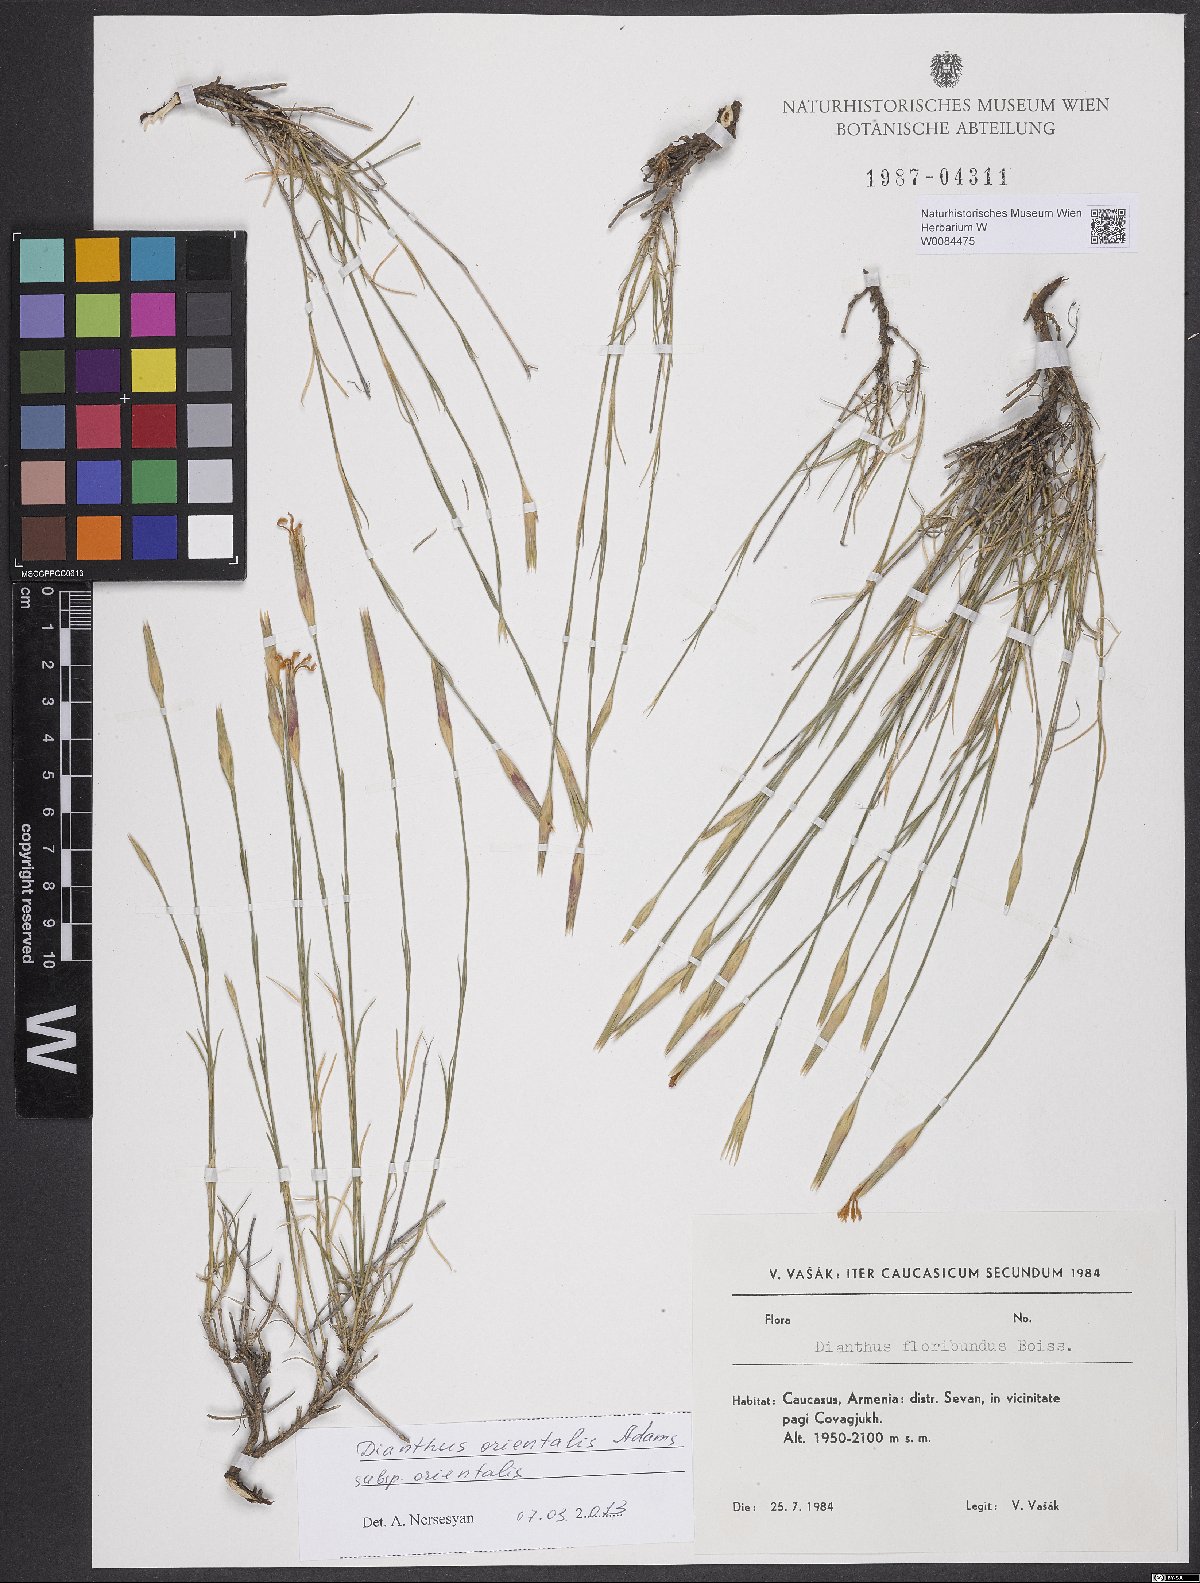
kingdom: Plantae
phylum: Tracheophyta
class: Magnoliopsida
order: Caryophyllales
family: Caryophyllaceae
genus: Dianthus
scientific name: Dianthus orientalis
